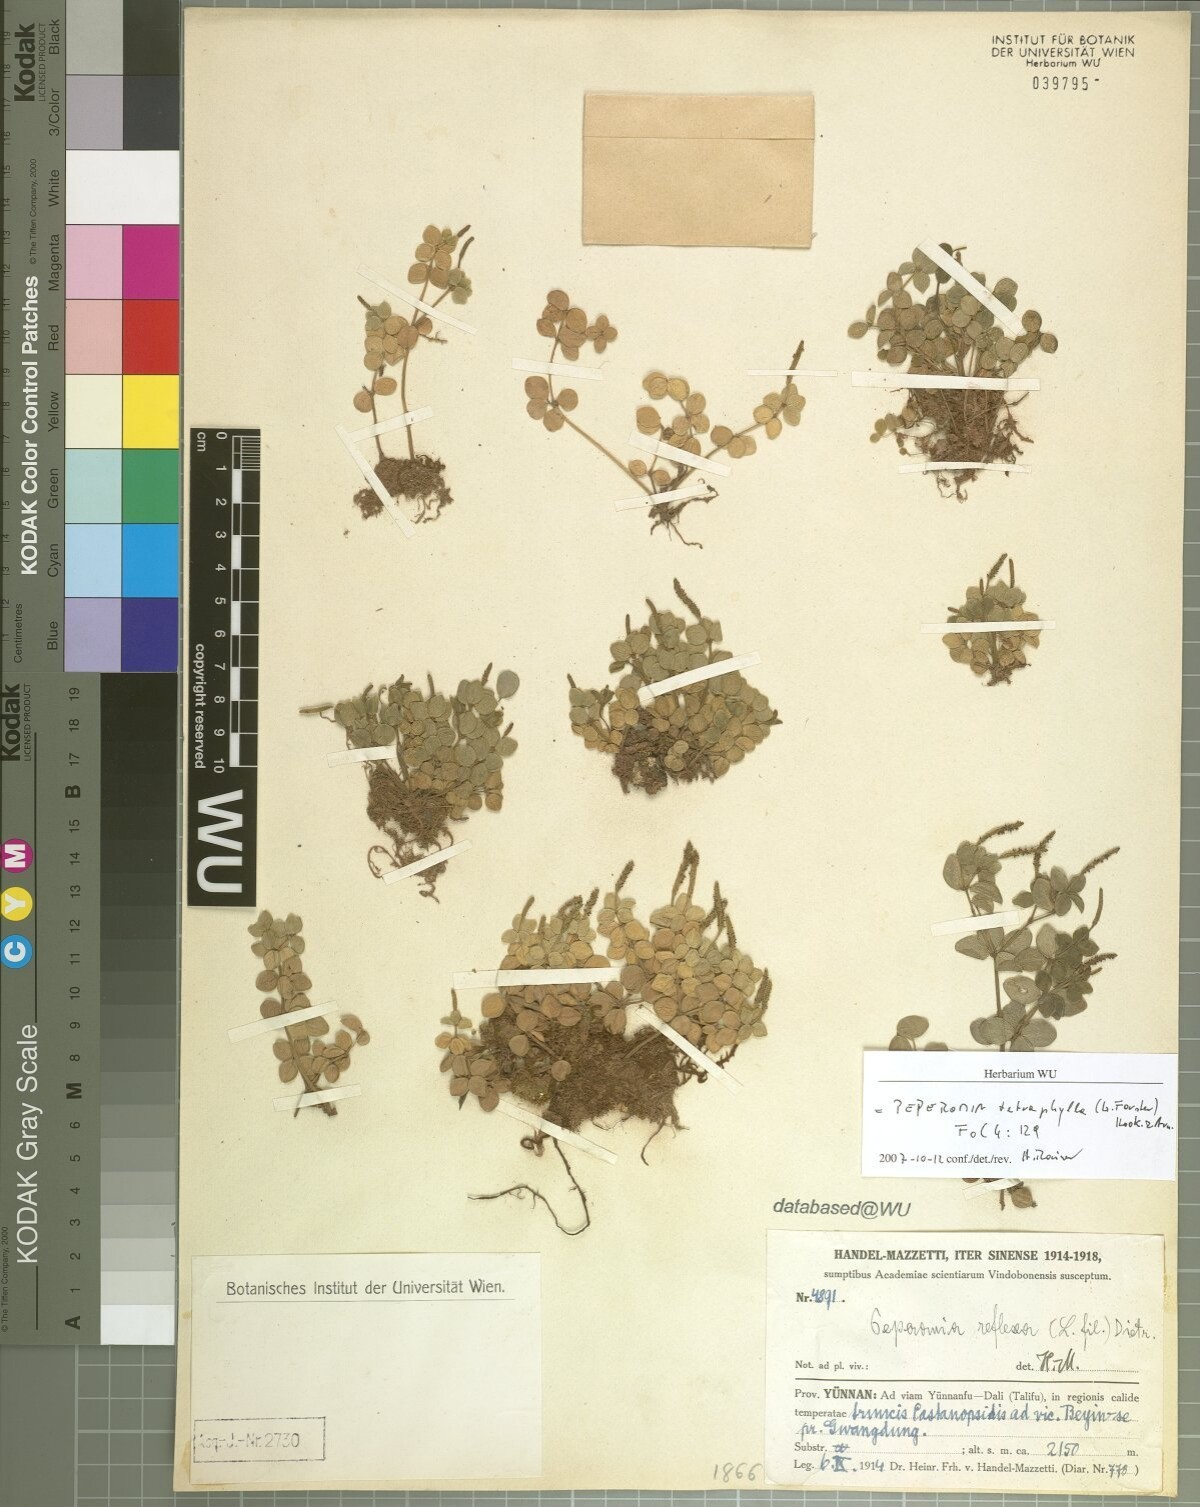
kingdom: Plantae
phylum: Tracheophyta
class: Magnoliopsida
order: Piperales
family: Piperaceae
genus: Peperomia
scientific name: Peperomia tetraphylla
